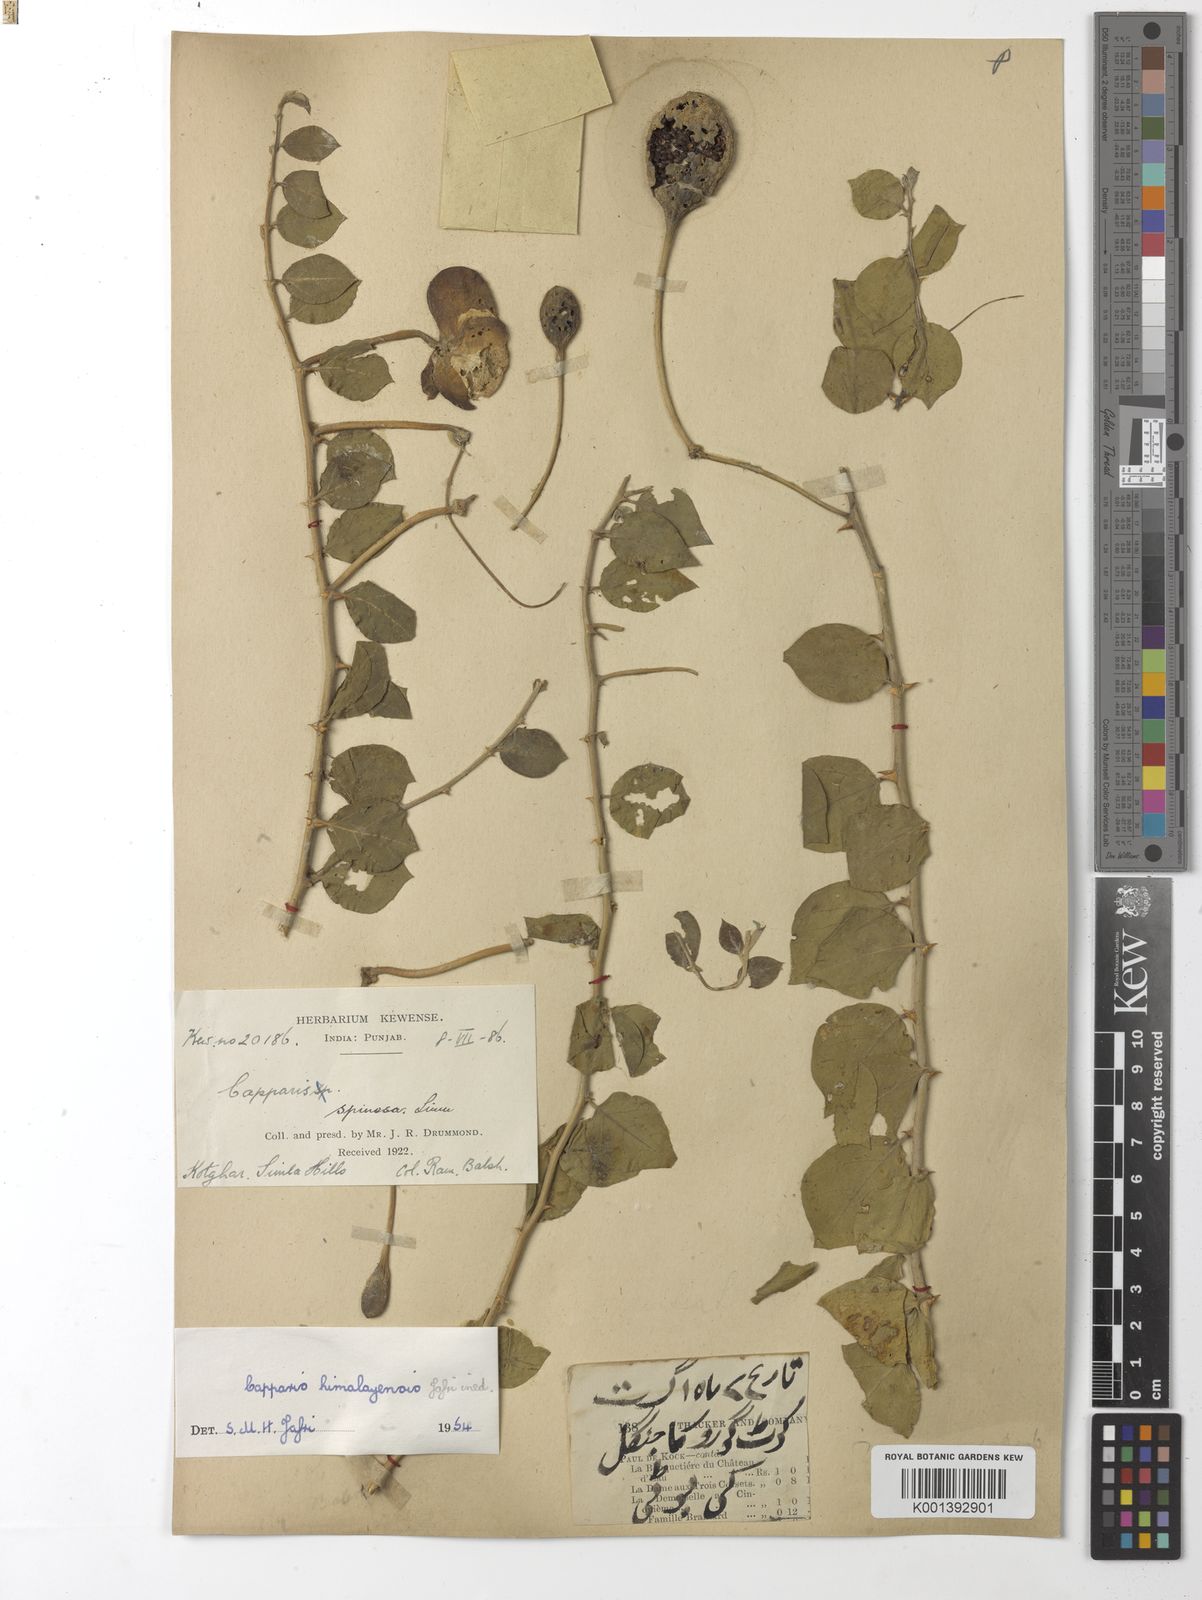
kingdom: Plantae
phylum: Tracheophyta
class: Magnoliopsida
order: Brassicales
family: Capparaceae
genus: Capparis
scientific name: Capparis spinosa
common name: Caper
